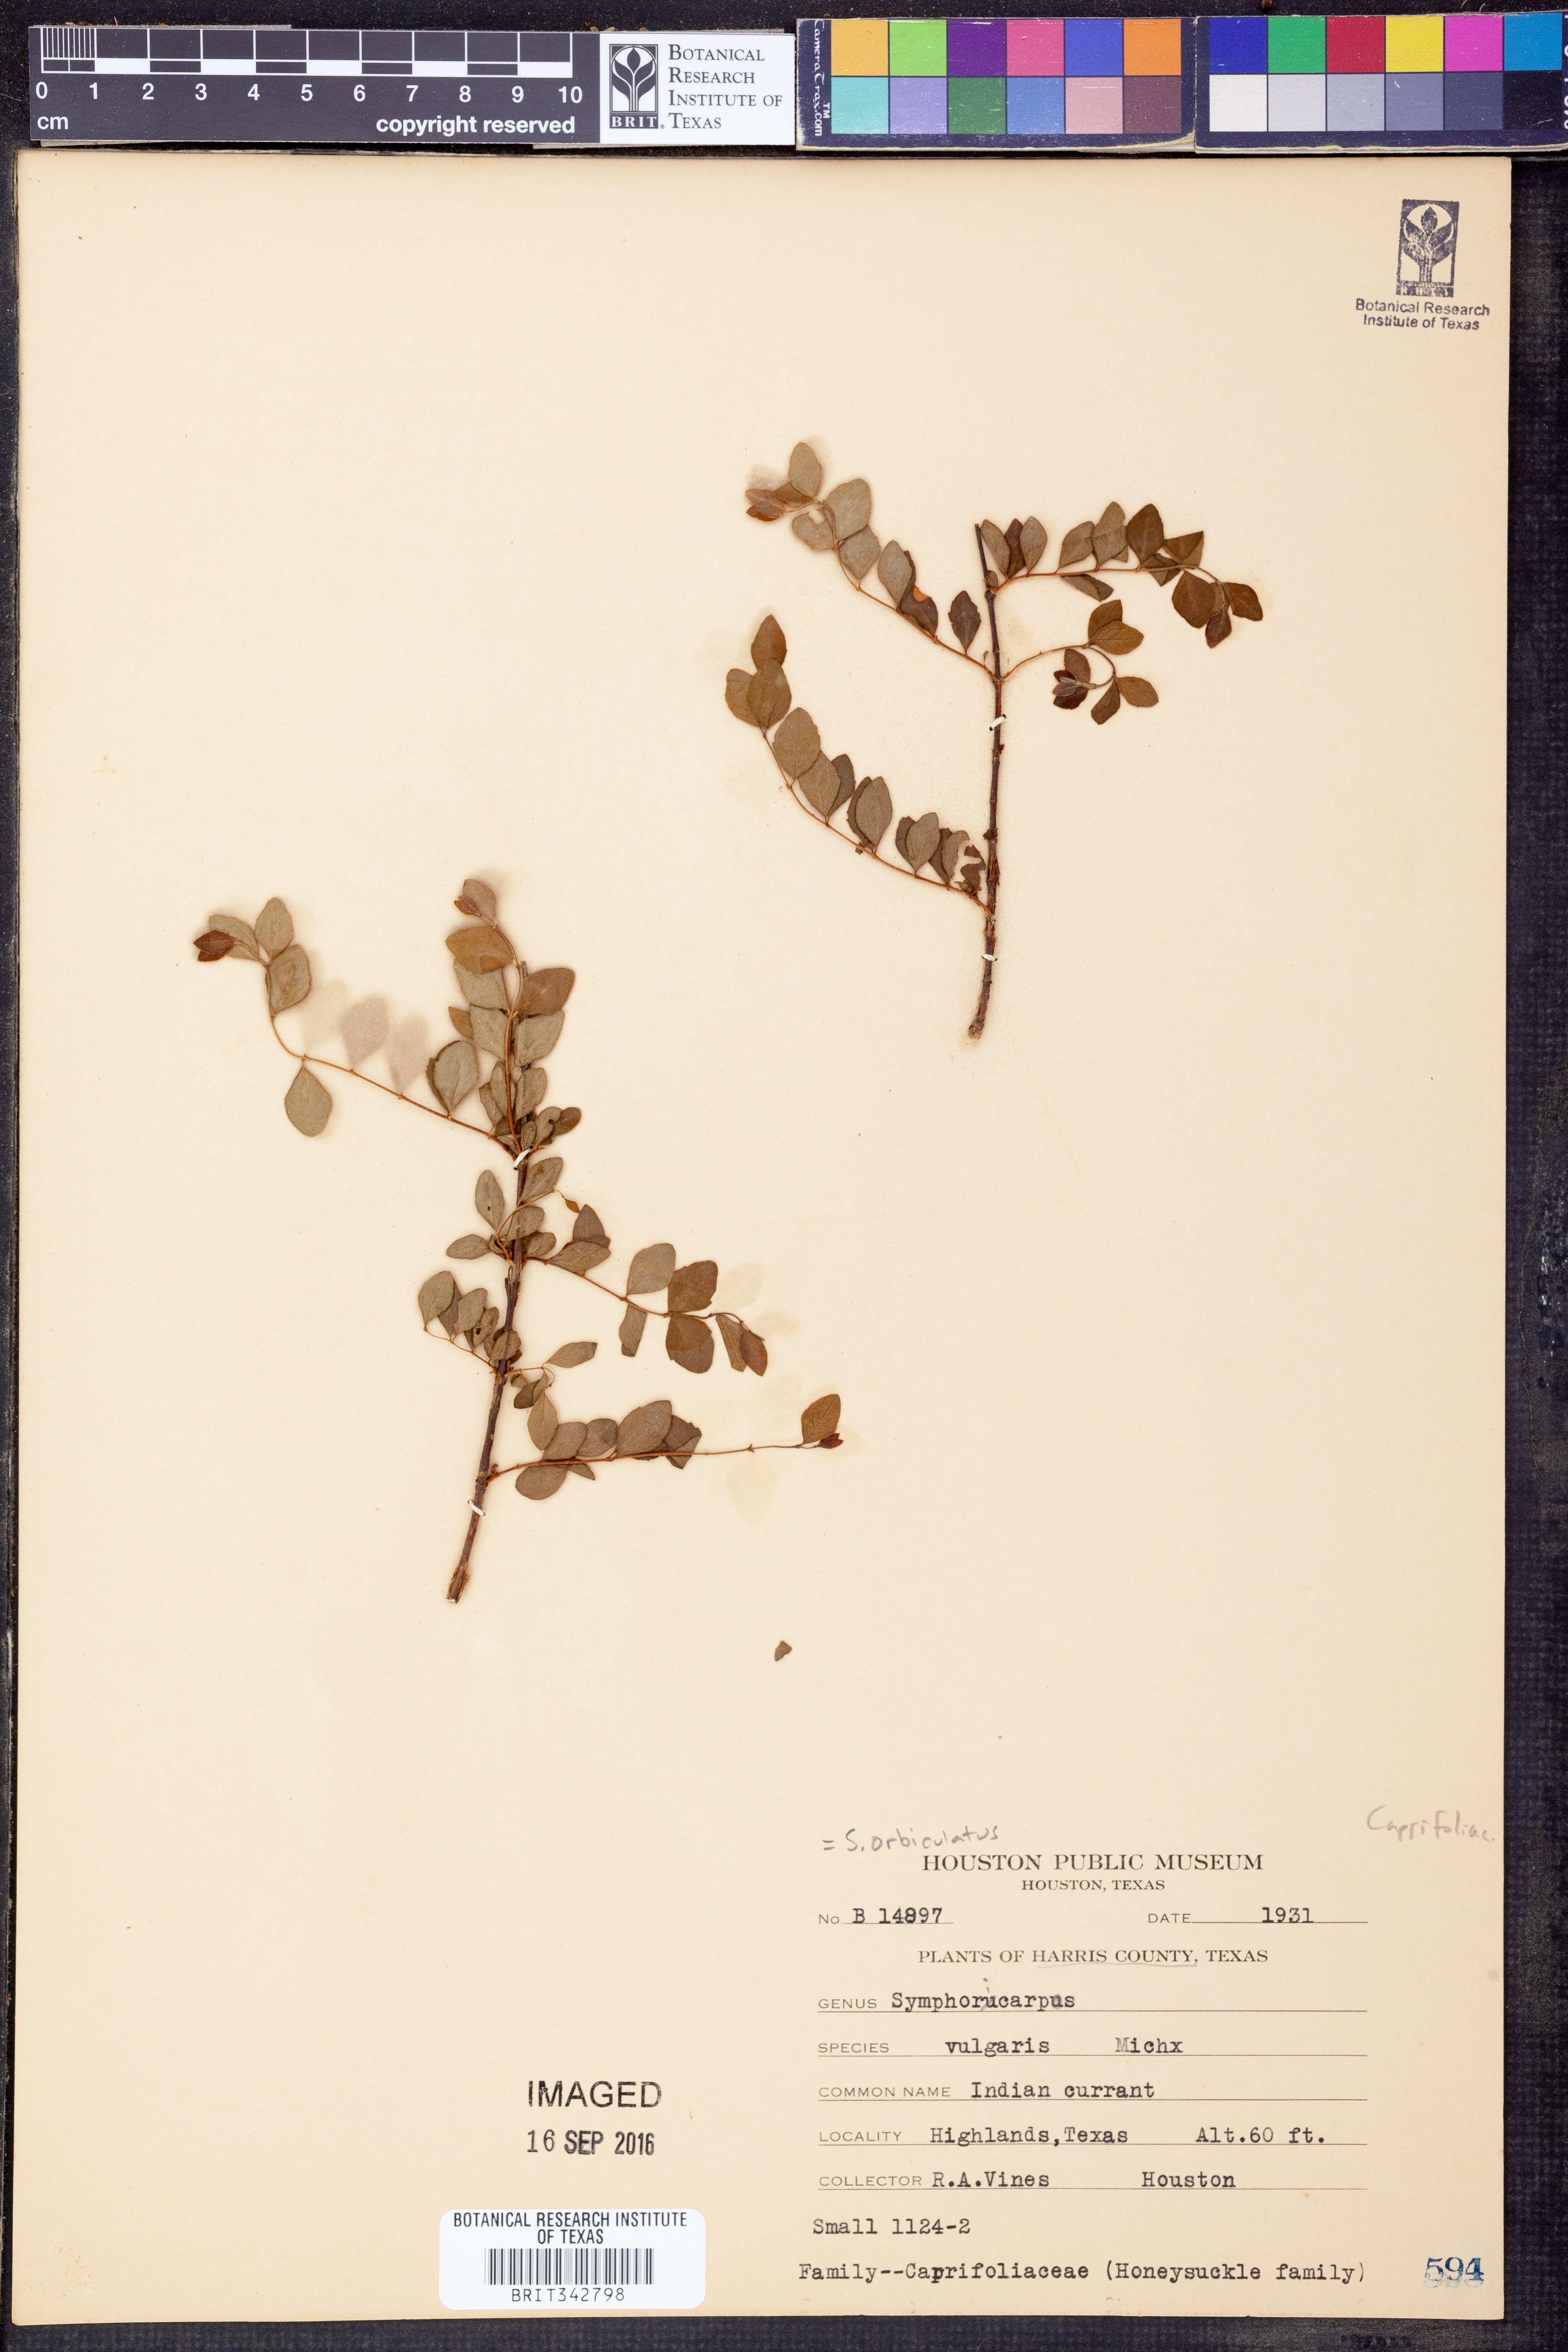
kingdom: Plantae
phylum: Tracheophyta
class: Magnoliopsida
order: Dipsacales
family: Caprifoliaceae
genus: Symphoricarpos
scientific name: Symphoricarpos orbiculatus
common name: Coralberry
